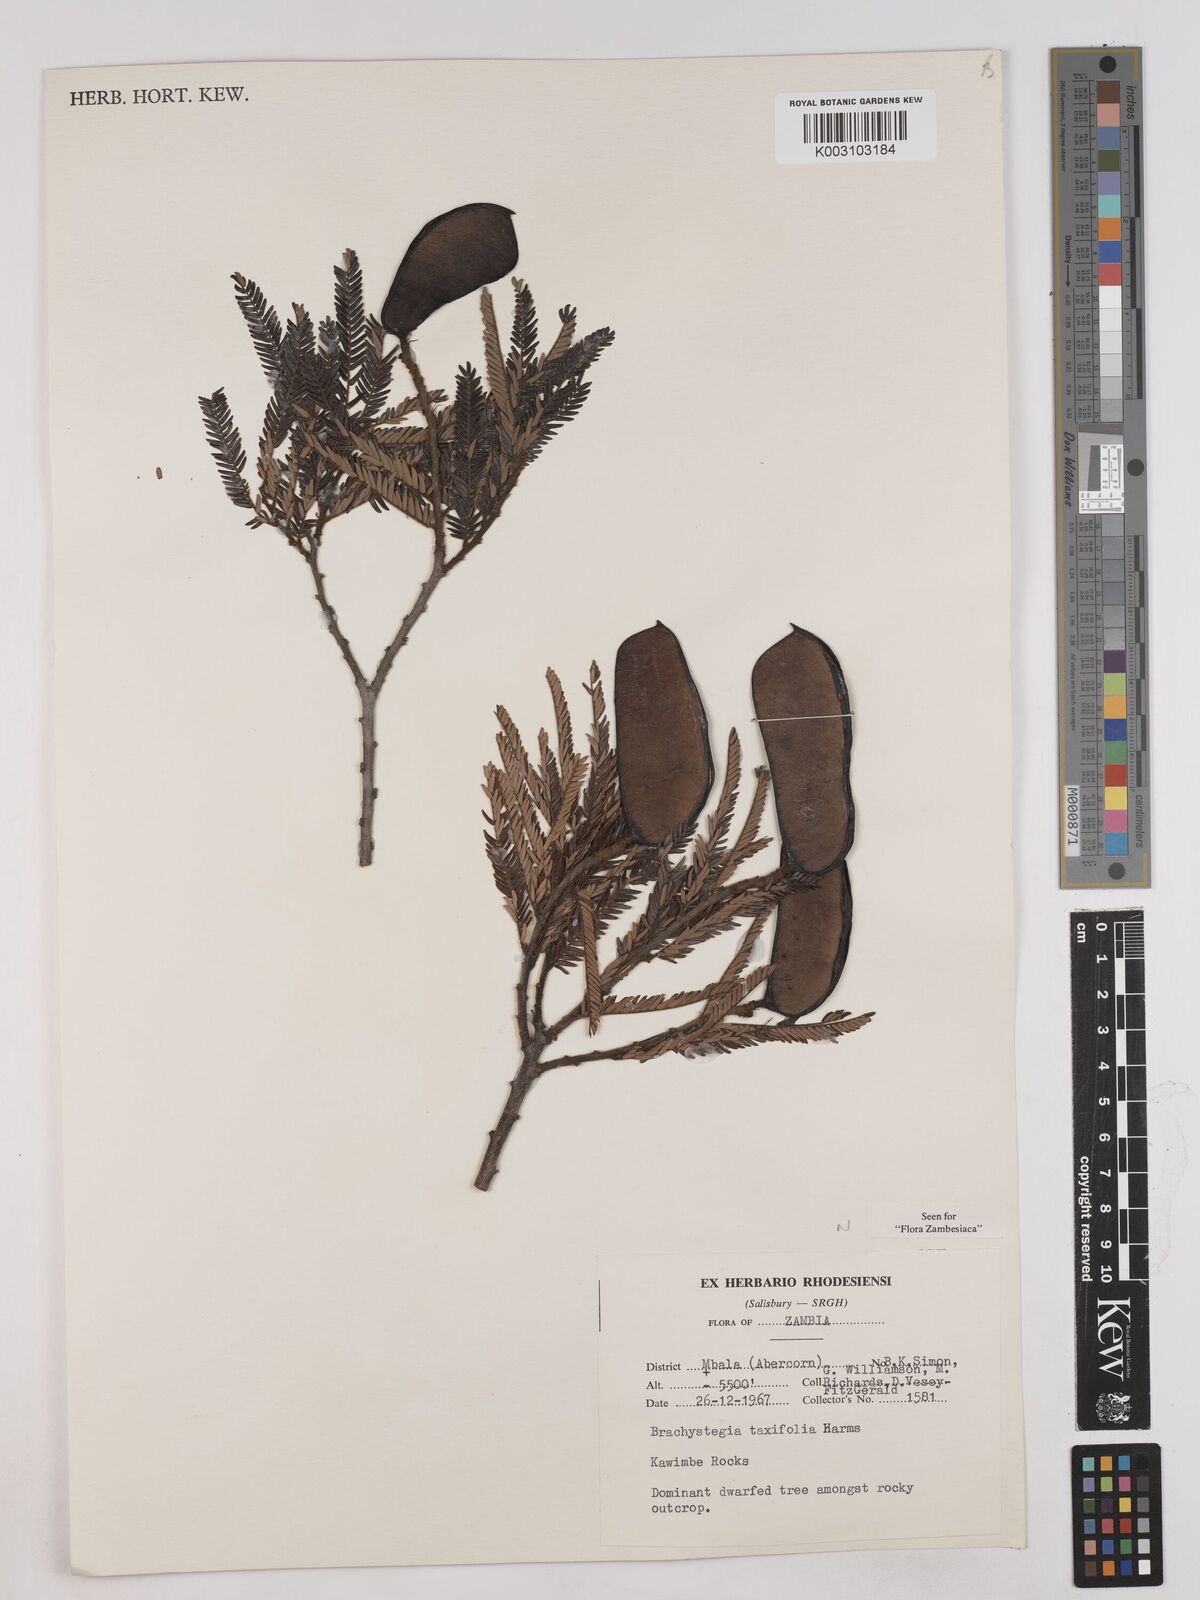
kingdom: Plantae
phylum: Tracheophyta
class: Magnoliopsida
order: Fabales
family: Fabaceae
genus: Brachystegia
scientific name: Brachystegia taxifolia
